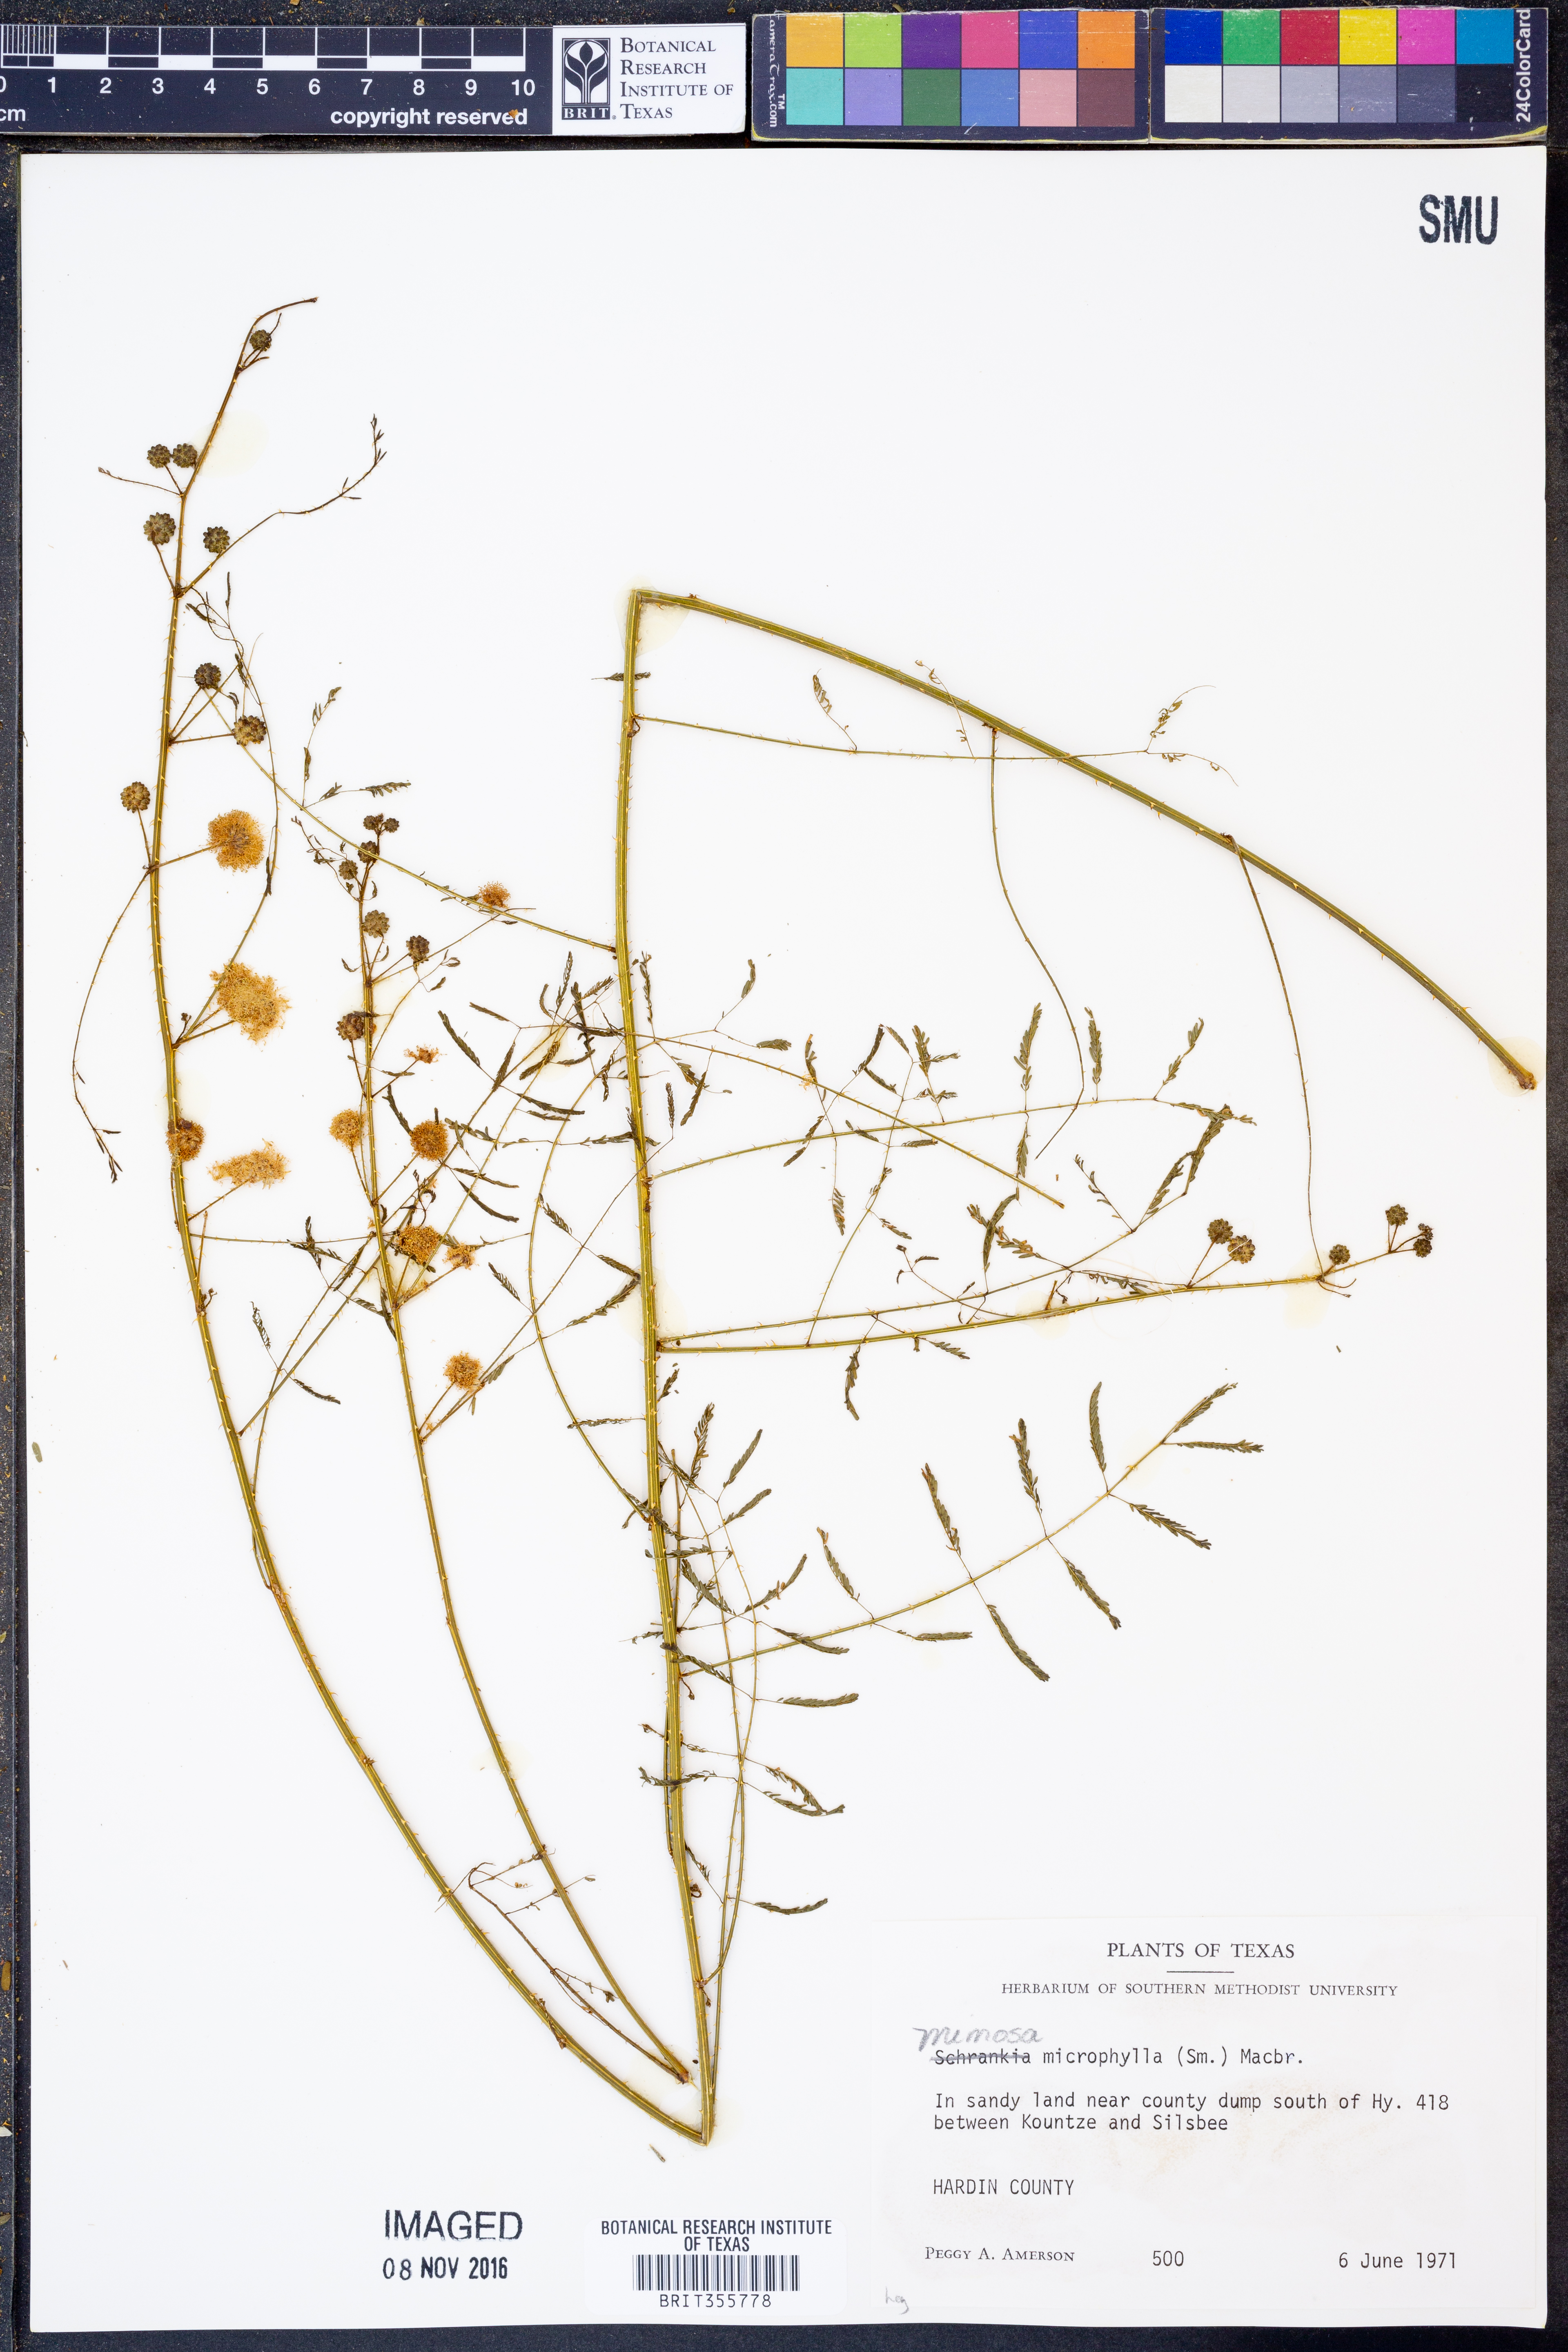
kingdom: Plantae
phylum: Tracheophyta
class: Magnoliopsida
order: Fabales
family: Fabaceae
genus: Mimosa
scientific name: Mimosa quadrivalvis
